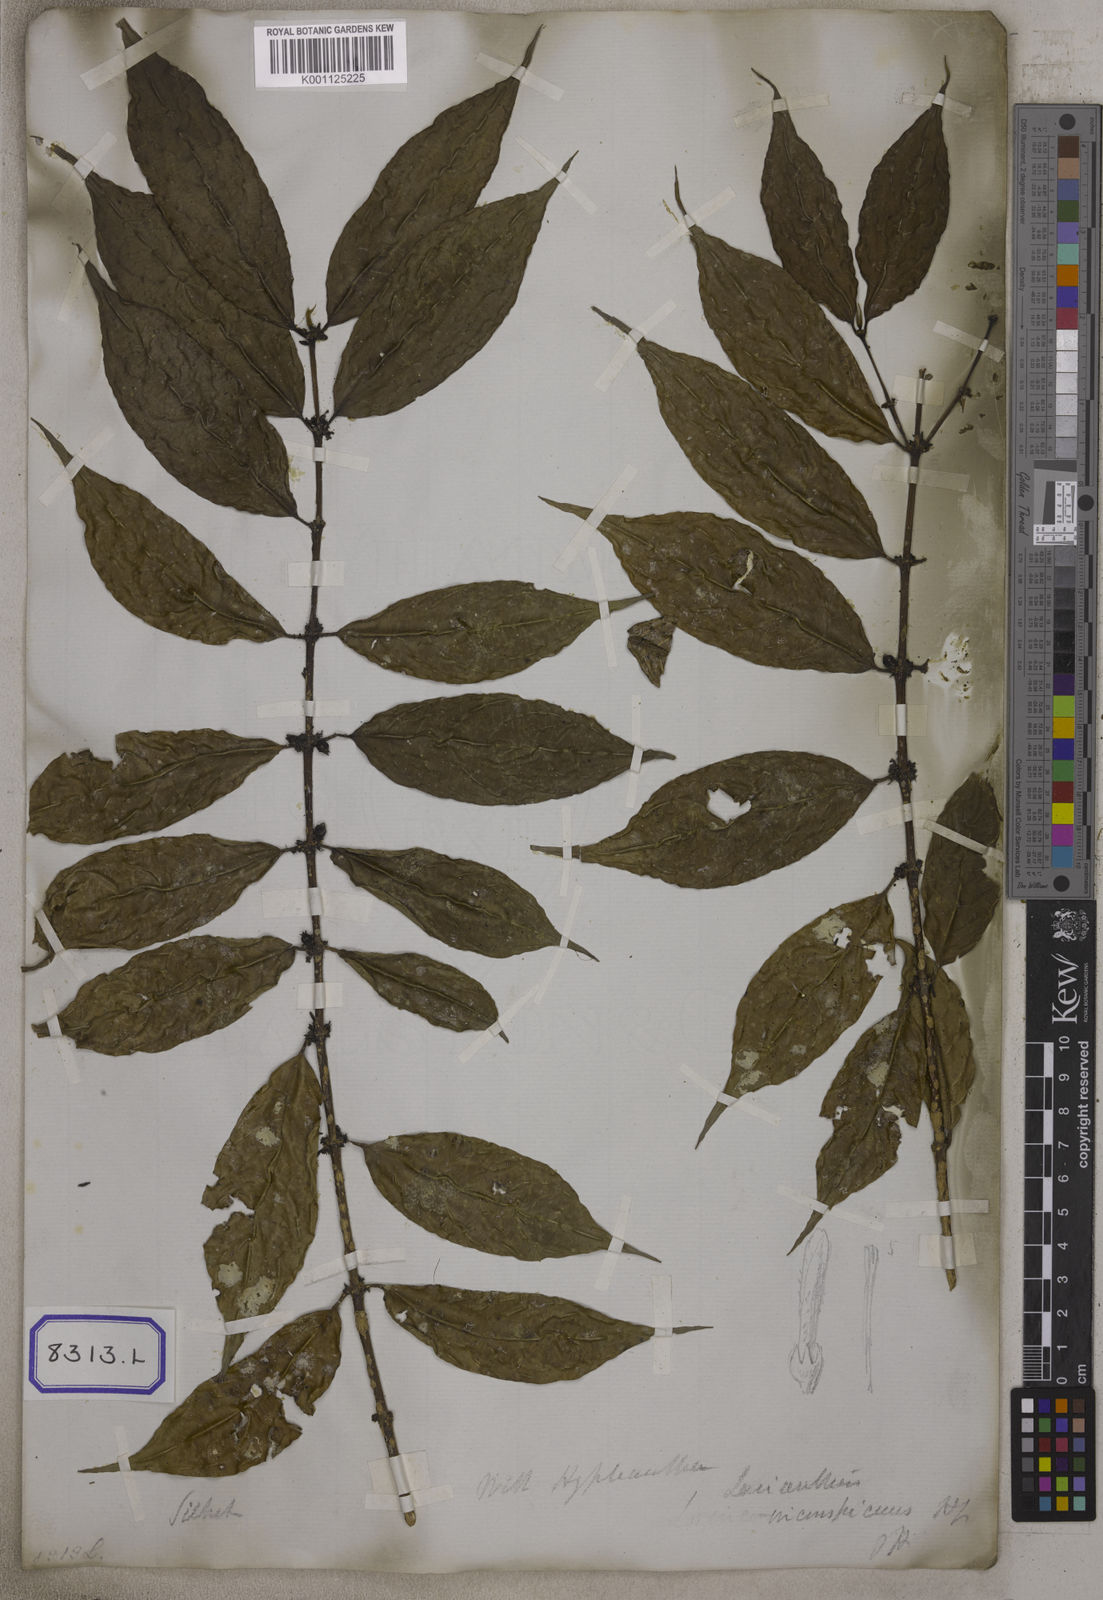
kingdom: Plantae
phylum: Tracheophyta
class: Magnoliopsida
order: Gentianales
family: Rubiaceae
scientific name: Rubiaceae
